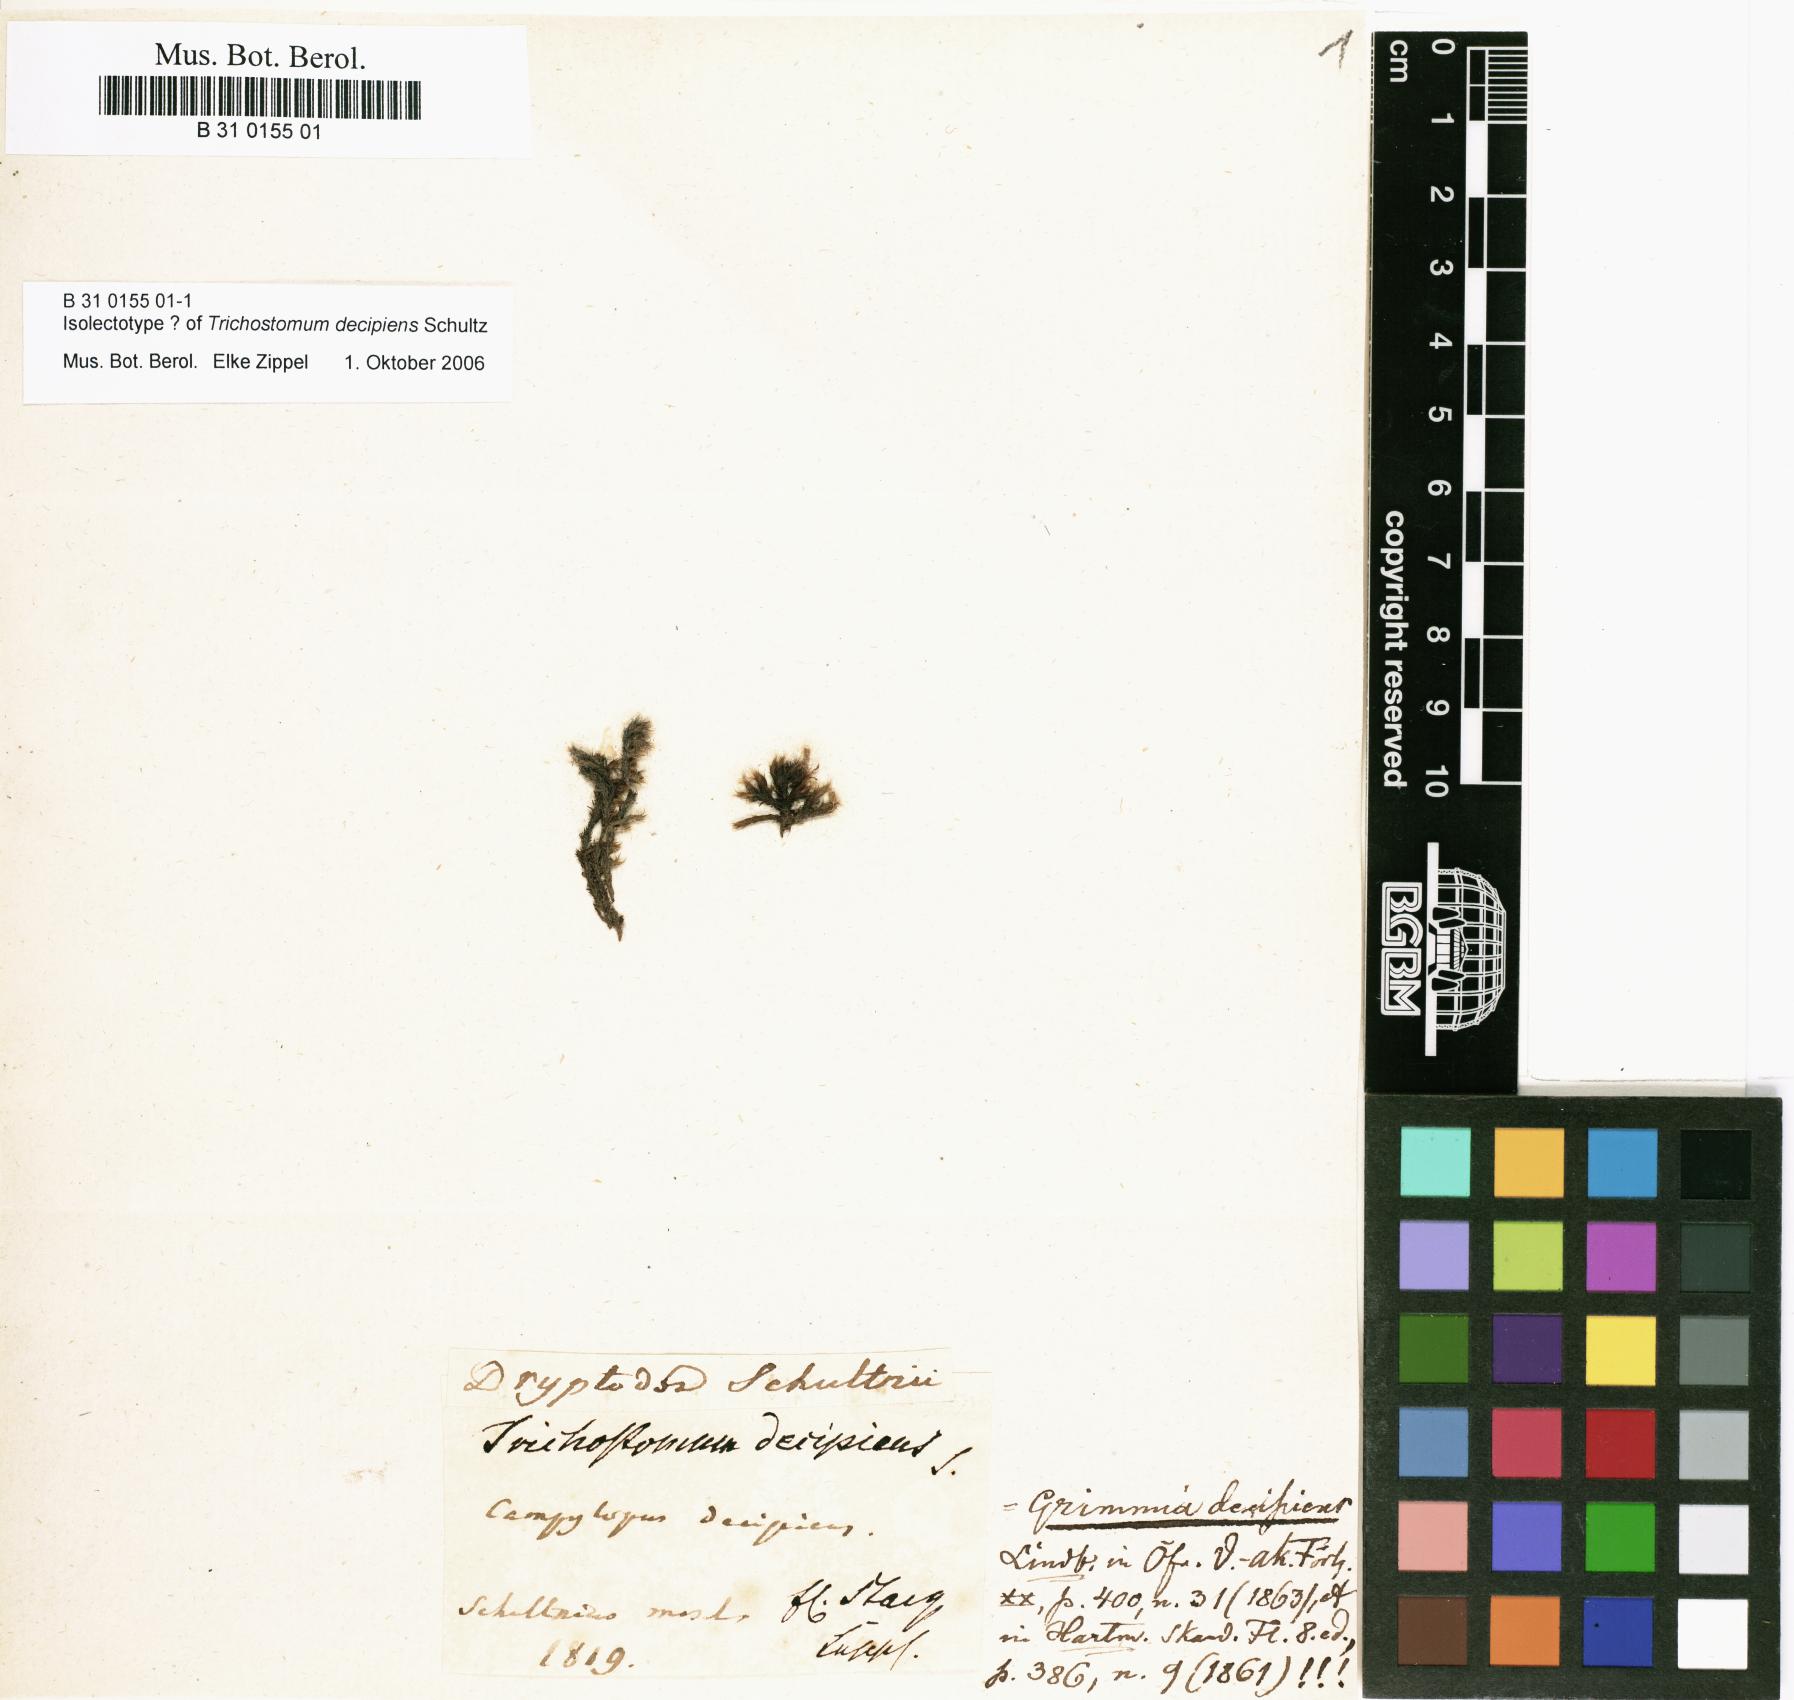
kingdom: Plantae
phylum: Bryophyta
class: Bryopsida
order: Grimmiales
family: Grimmiaceae
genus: Grimmia
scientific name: Grimmia decipiens
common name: Great grimmia
